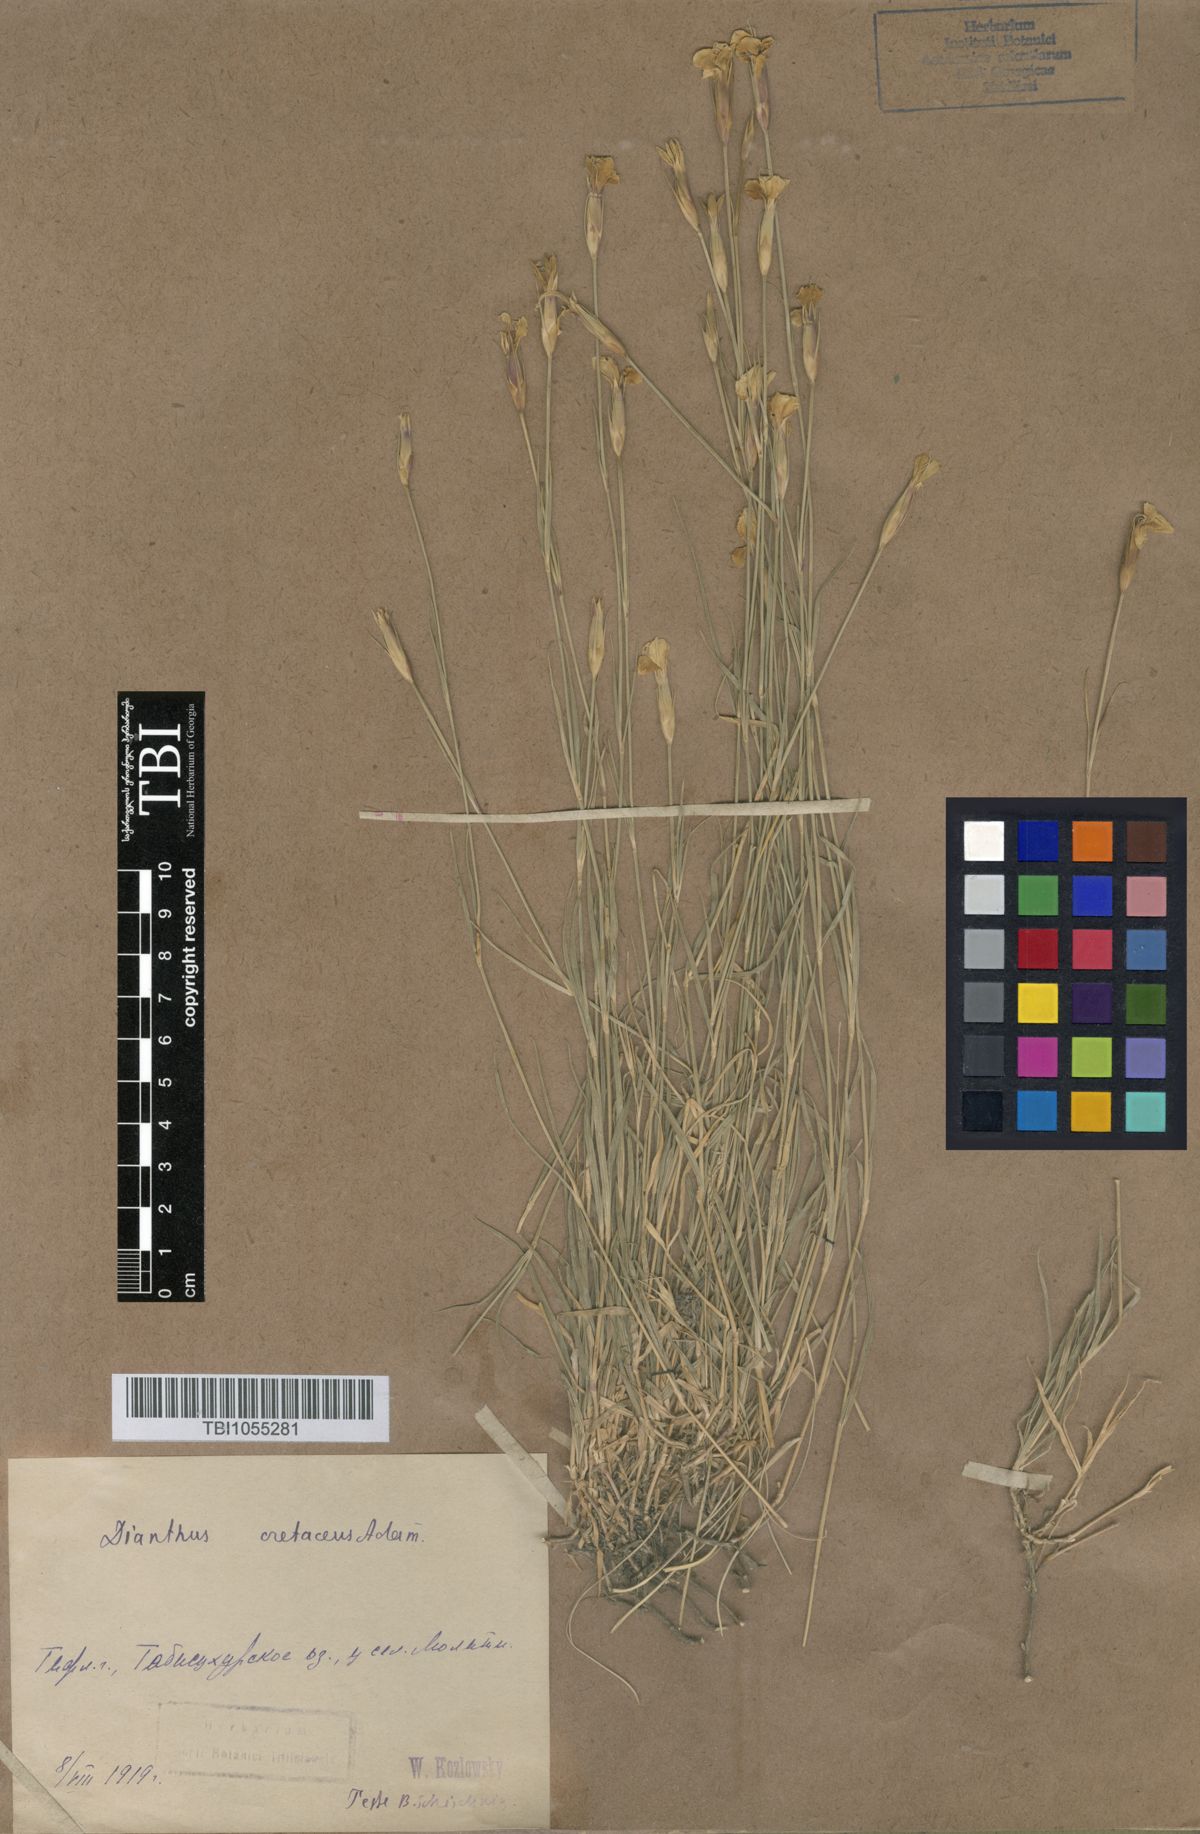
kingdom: Plantae
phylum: Tracheophyta
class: Magnoliopsida
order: Caryophyllales
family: Caryophyllaceae
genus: Dianthus
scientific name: Dianthus cretaceus
